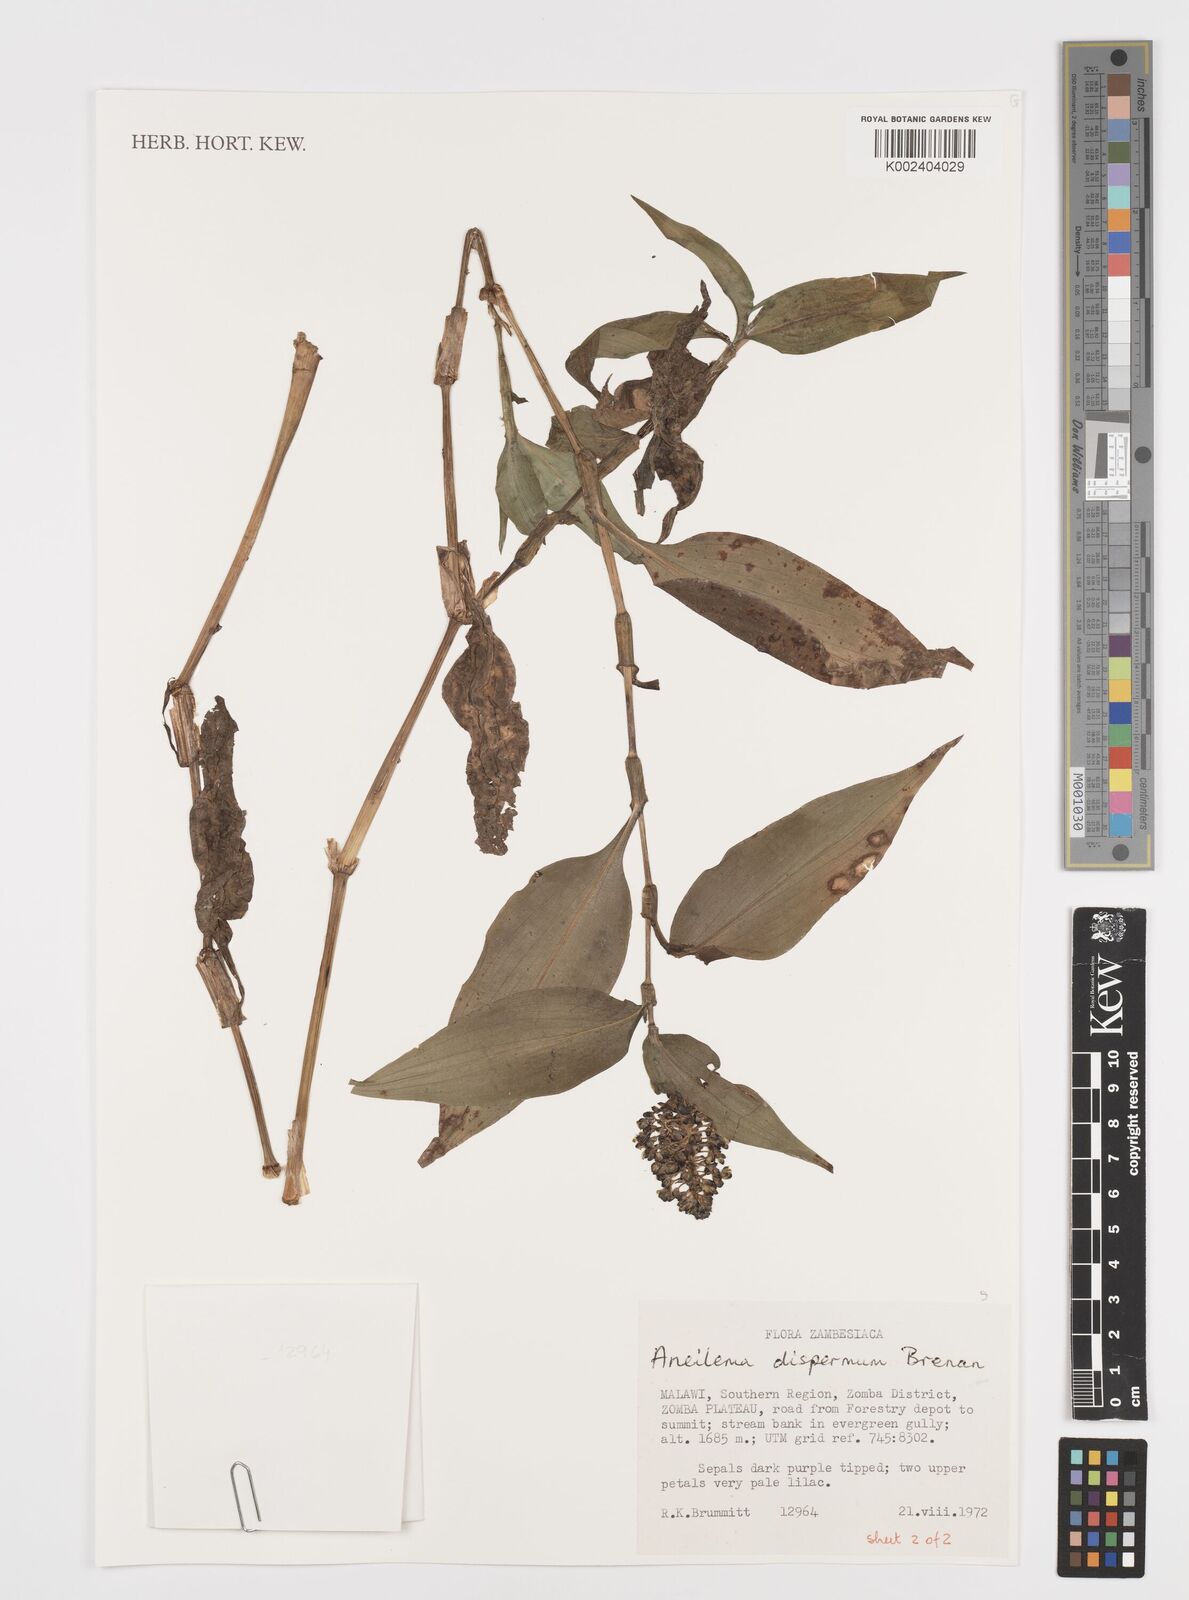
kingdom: Plantae
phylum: Tracheophyta
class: Liliopsida
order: Commelinales
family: Commelinaceae
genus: Aneilema
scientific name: Aneilema dispermum
